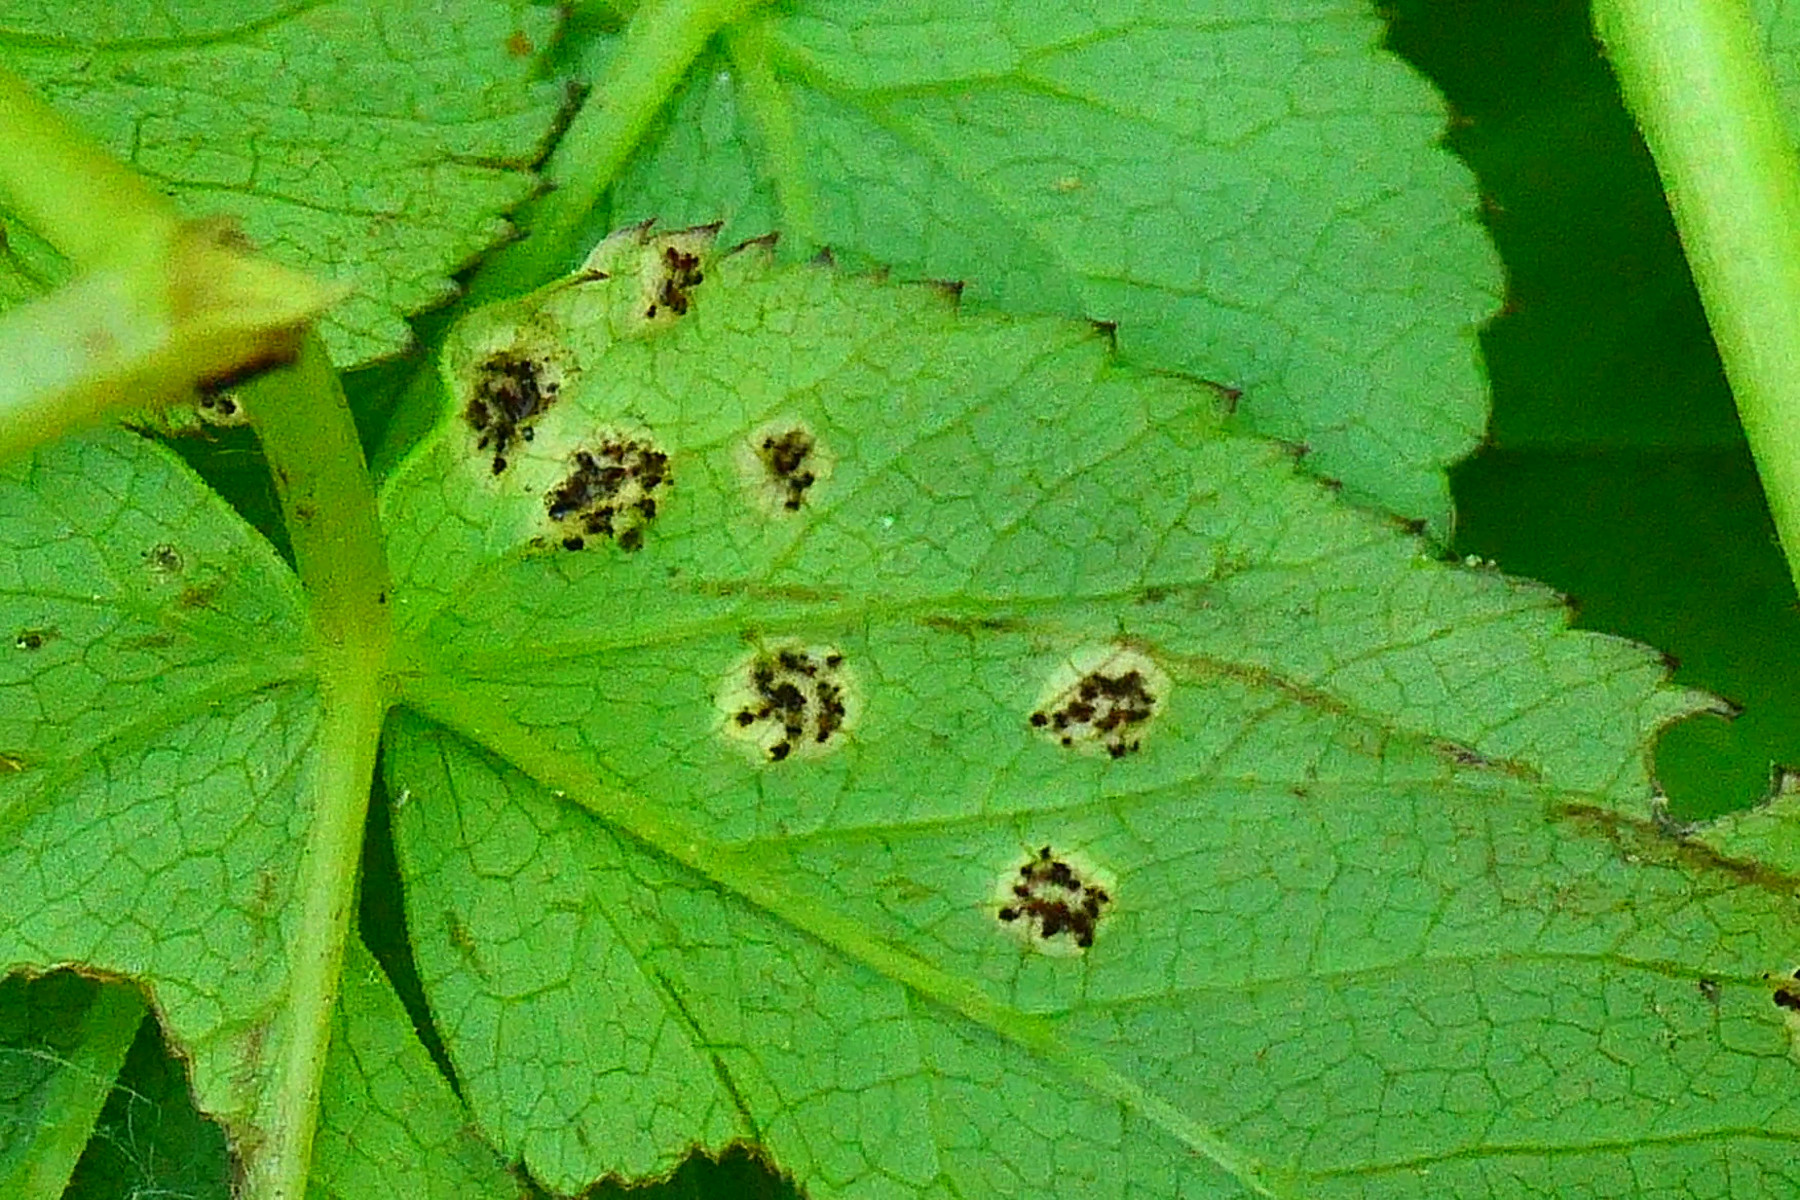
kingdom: Fungi
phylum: Basidiomycota
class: Pucciniomycetes
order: Pucciniales
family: Pucciniaceae
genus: Puccinia
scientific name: Puccinia
